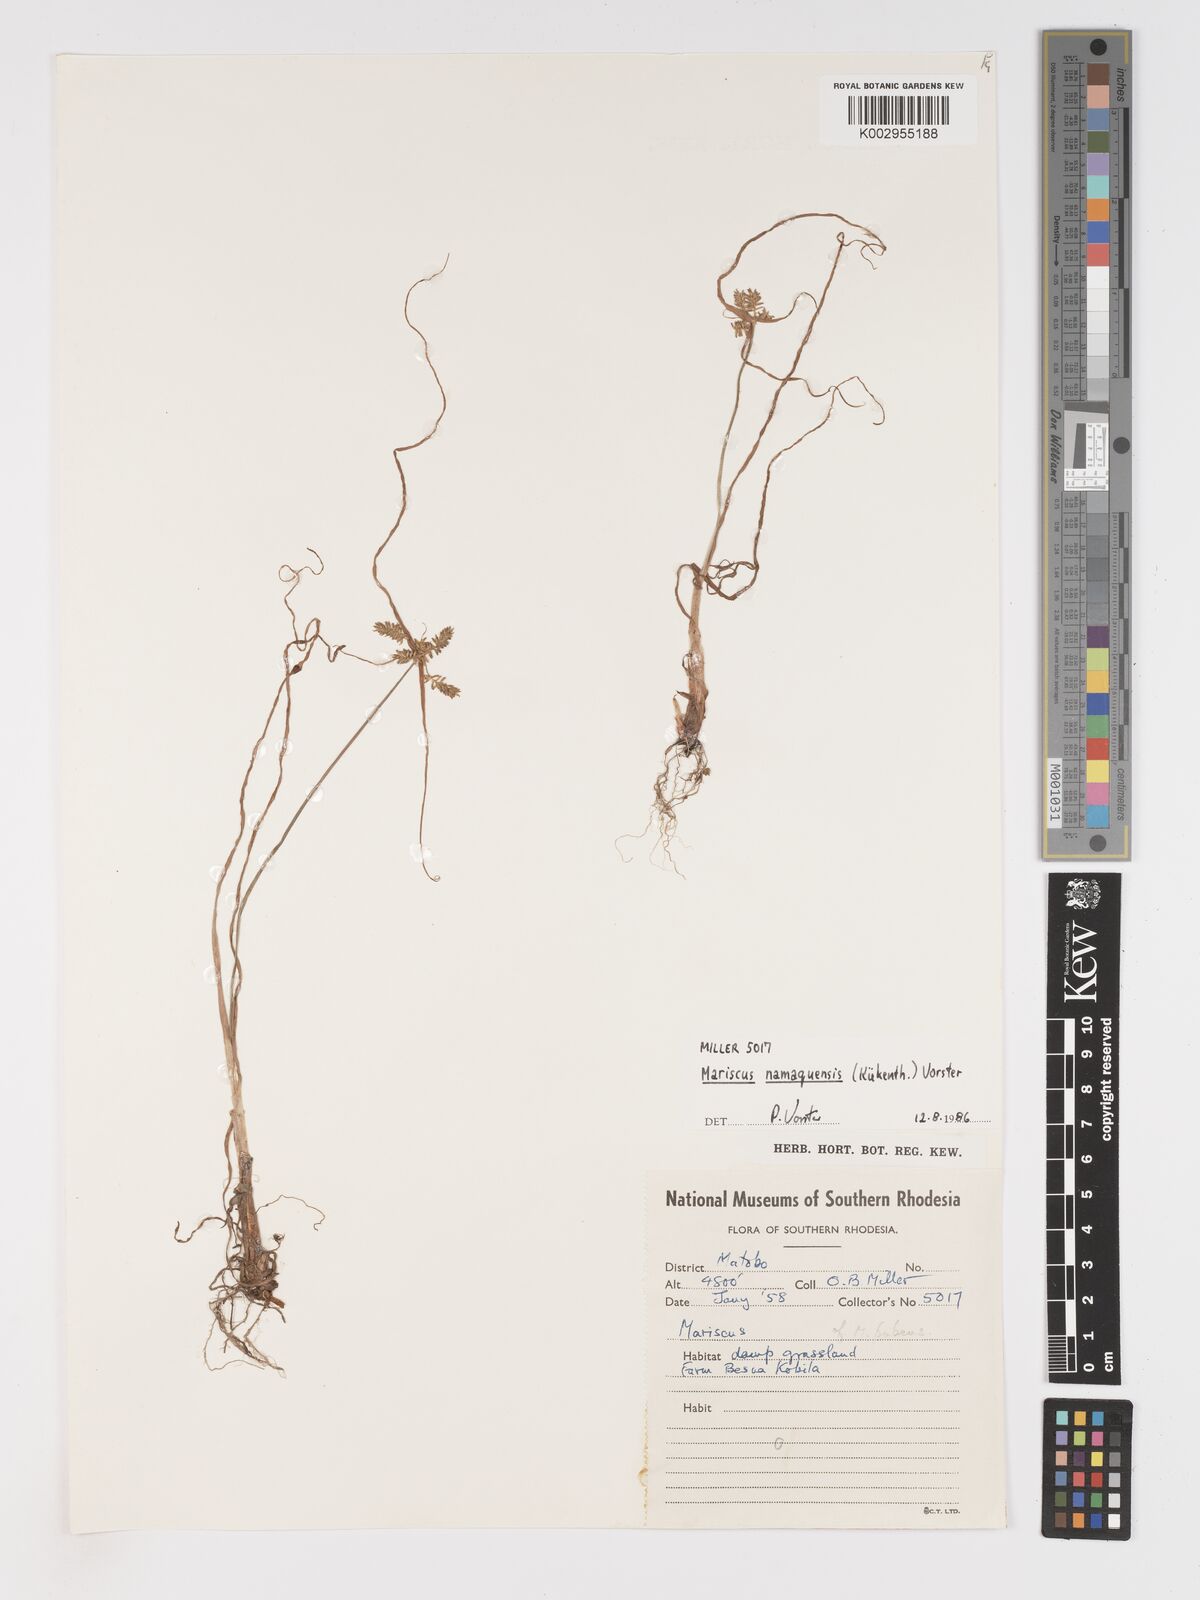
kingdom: Plantae
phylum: Tracheophyta
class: Liliopsida
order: Poales
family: Cyperaceae
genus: Cyperus
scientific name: Cyperus
